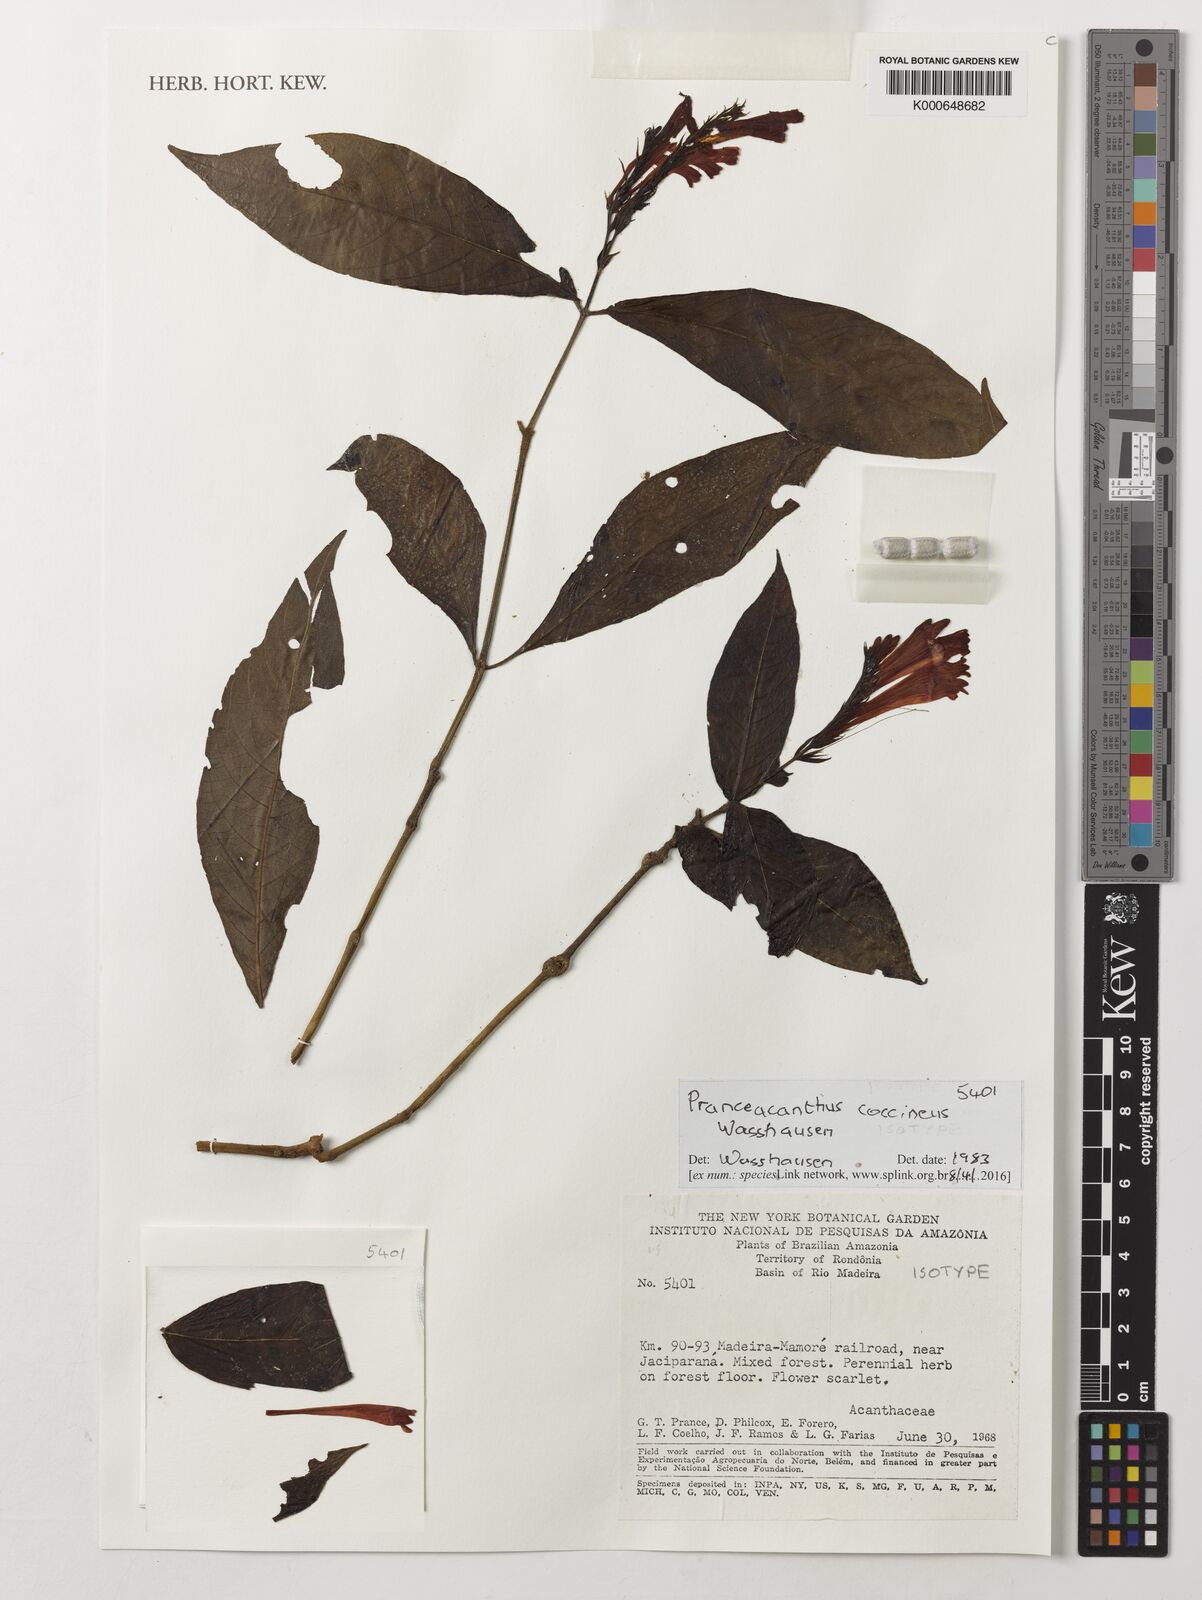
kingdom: Plantae
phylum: Tracheophyta
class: Magnoliopsida
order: Lamiales
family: Acanthaceae
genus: Pranceacanthus
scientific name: Pranceacanthus coccineus
